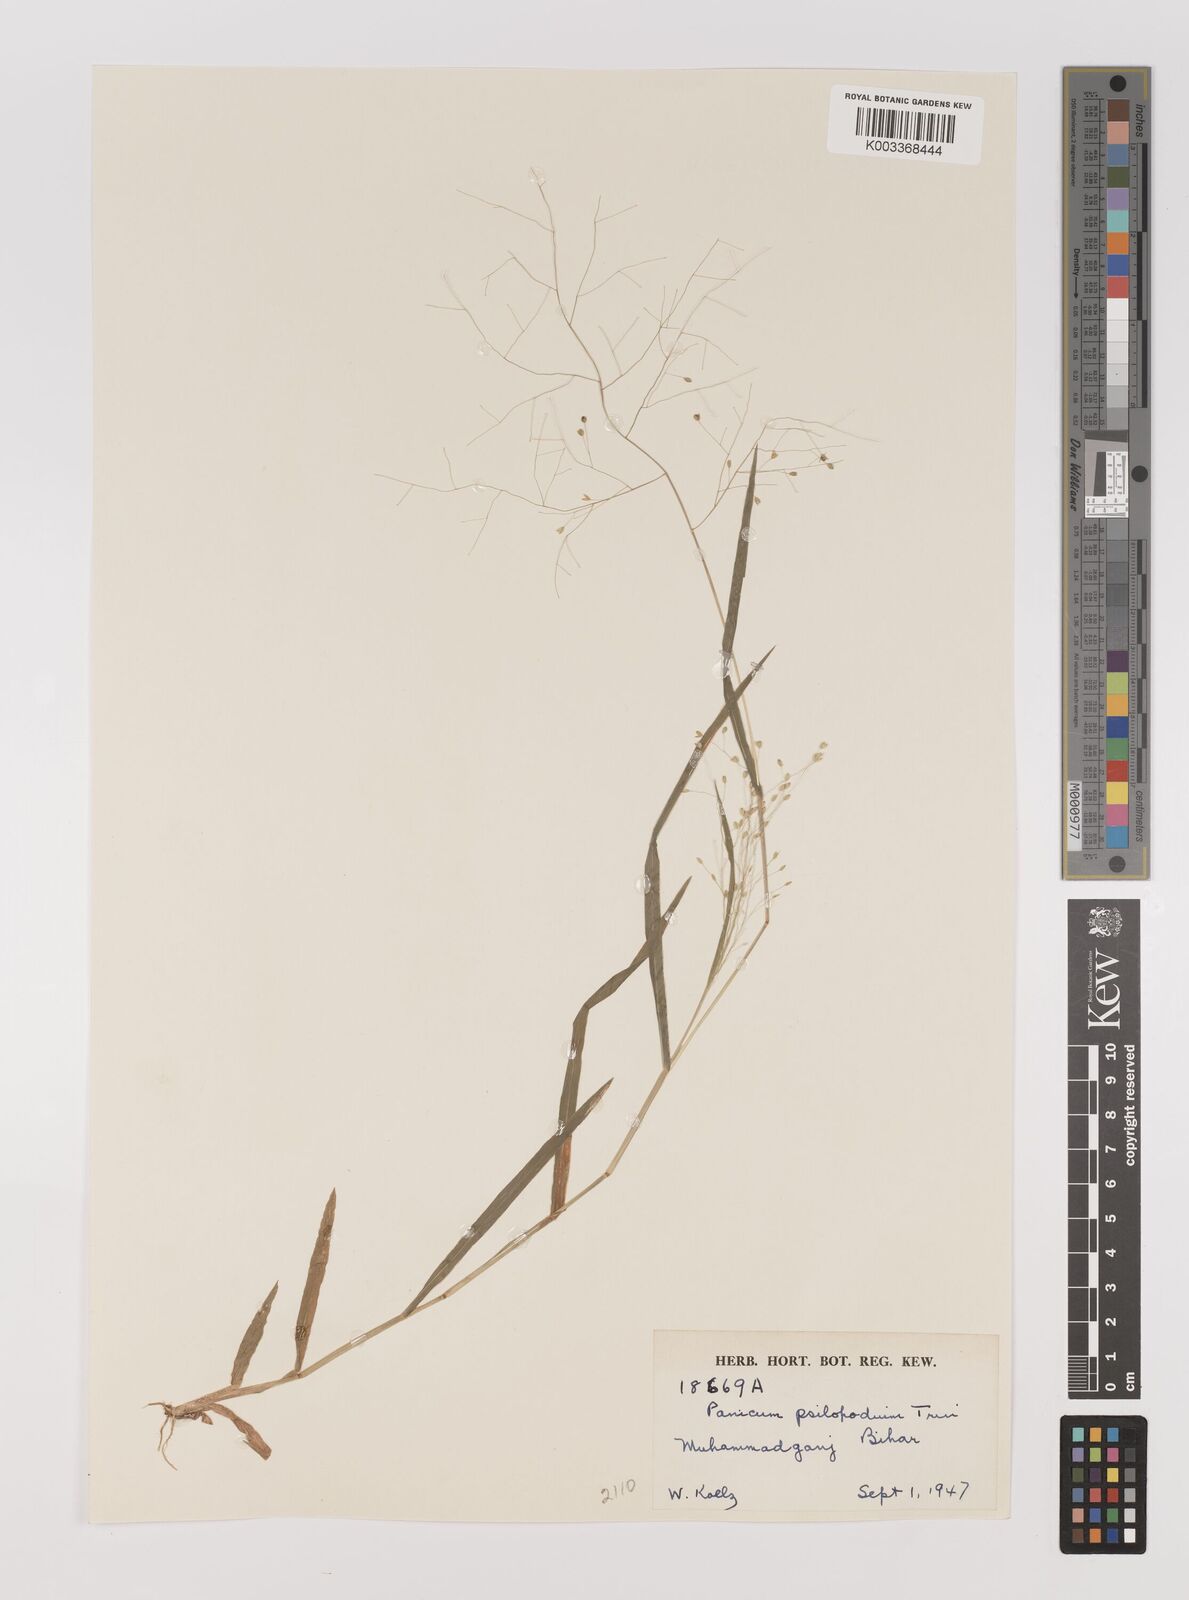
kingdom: Plantae
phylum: Tracheophyta
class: Liliopsida
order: Poales
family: Poaceae
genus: Panicum
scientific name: Panicum sumatrense
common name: Little millet
